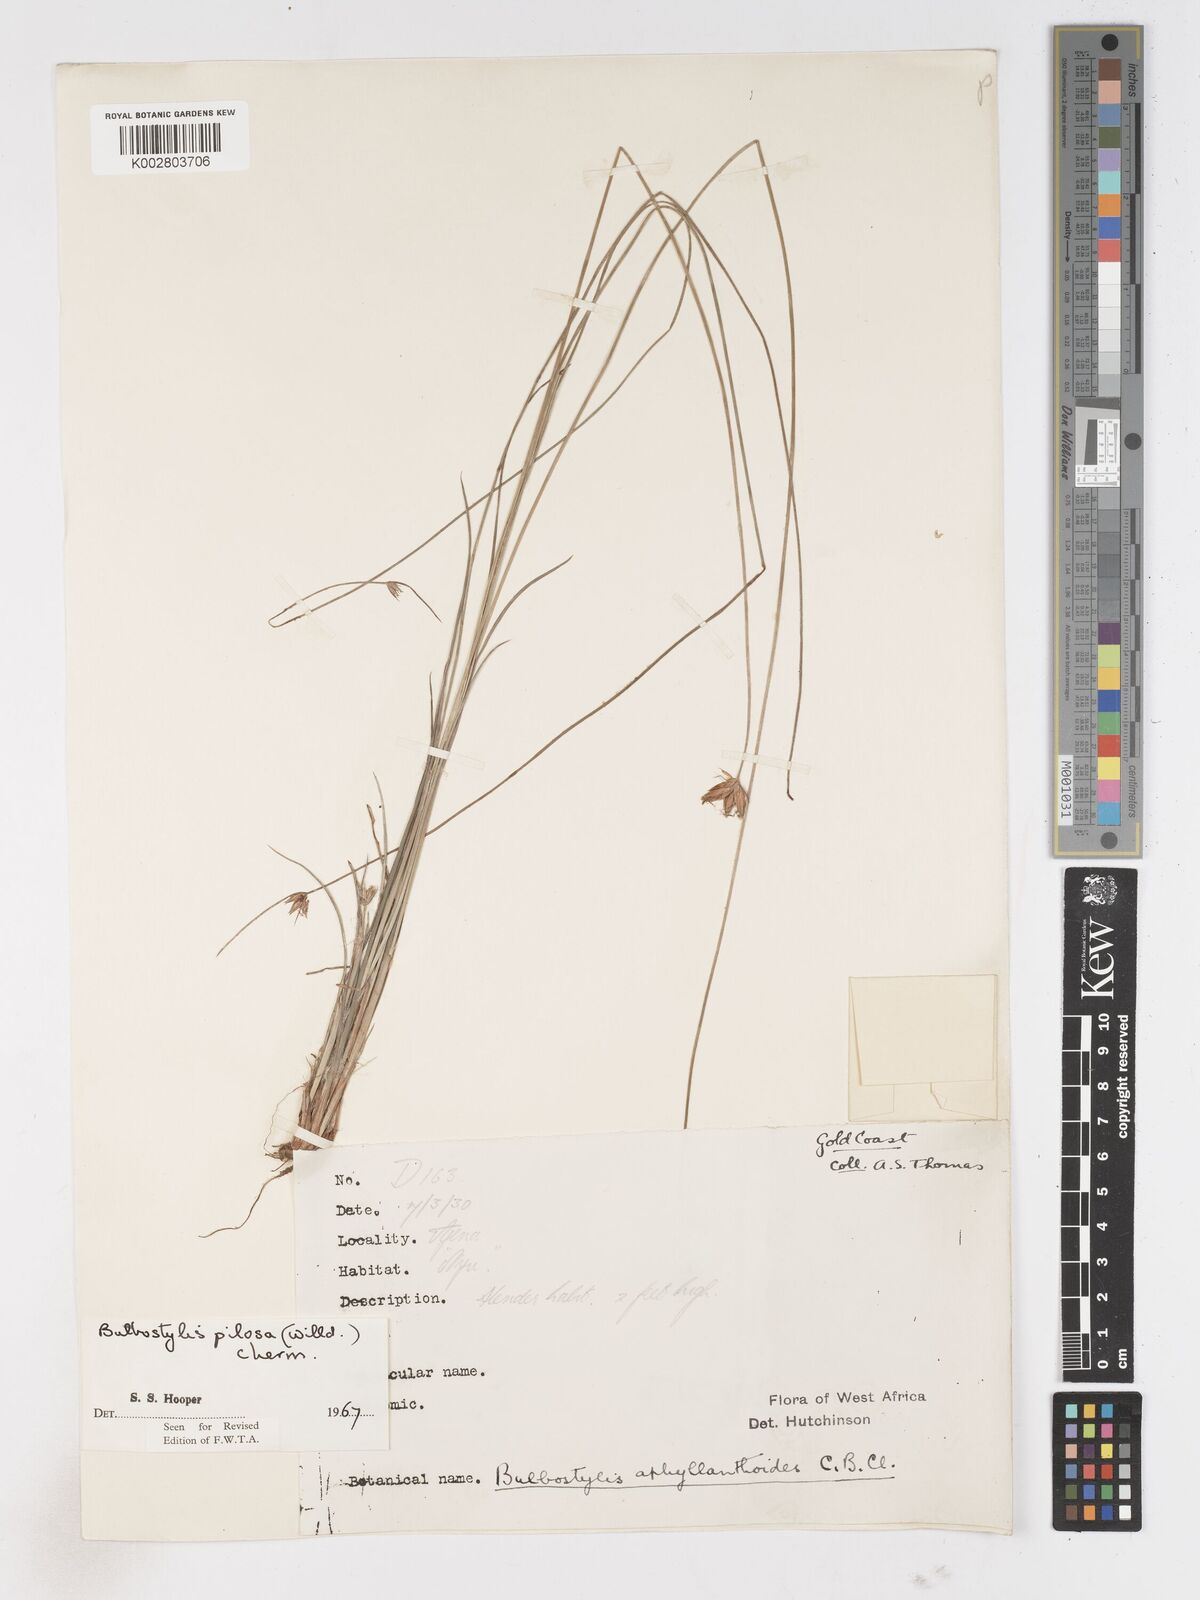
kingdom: Plantae
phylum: Tracheophyta
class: Liliopsida
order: Poales
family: Cyperaceae
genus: Bulbostylis
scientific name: Bulbostylis pilosa
